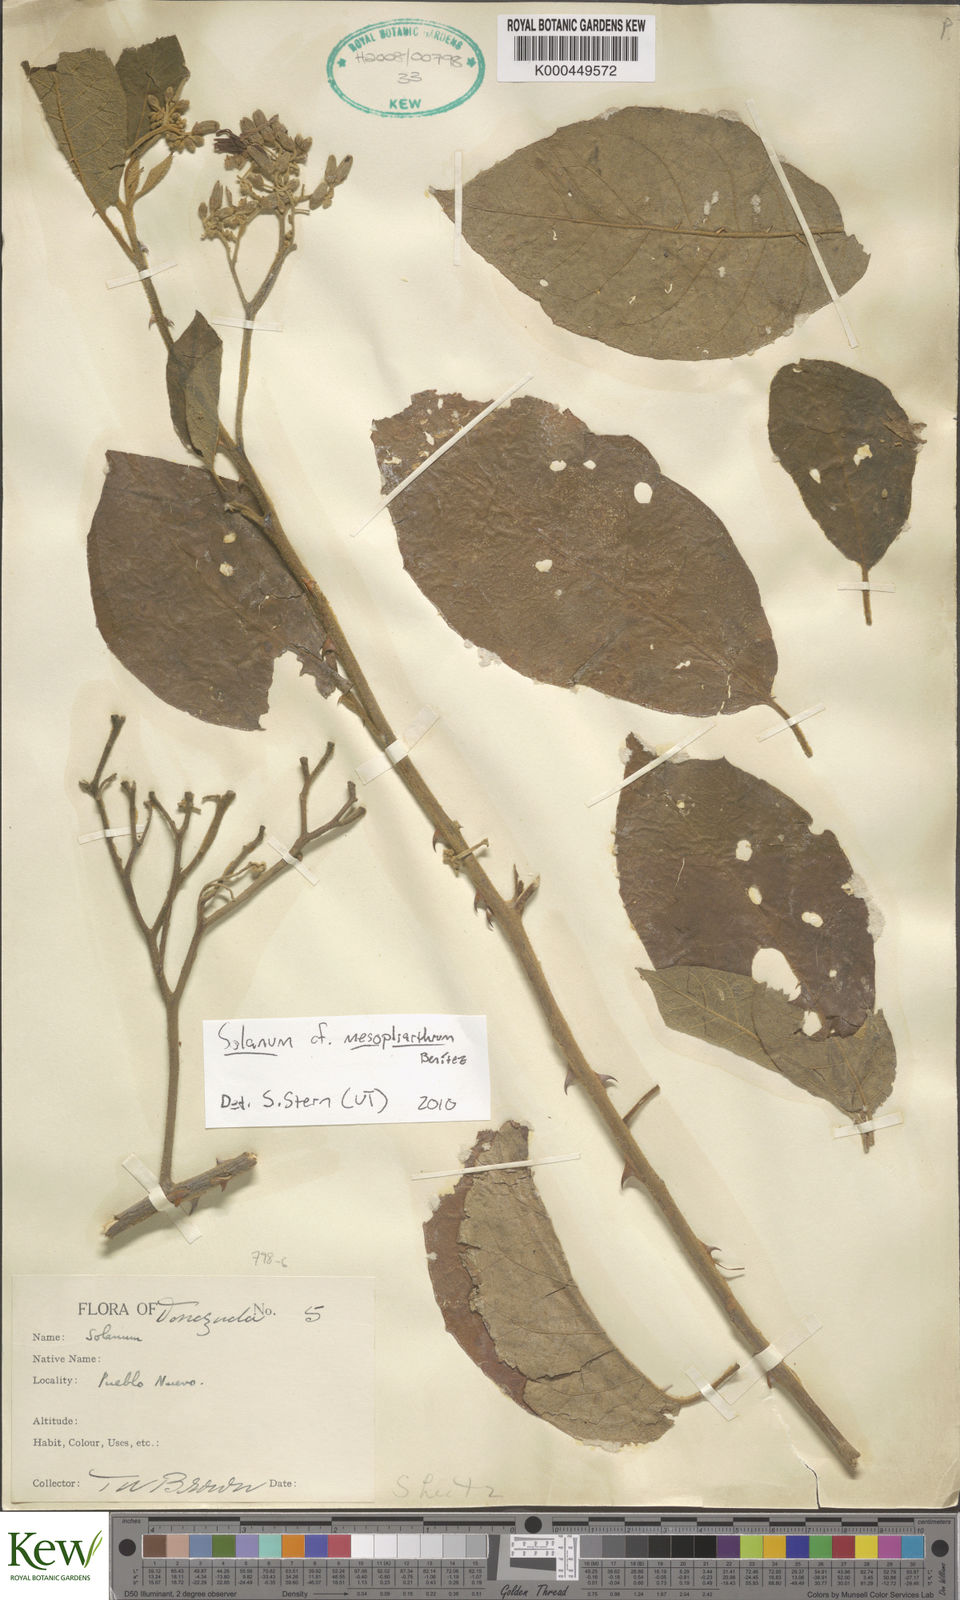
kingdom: Plantae
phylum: Tracheophyta
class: Magnoliopsida
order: Solanales
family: Solanaceae
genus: Solanum
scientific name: Solanum velutinum
